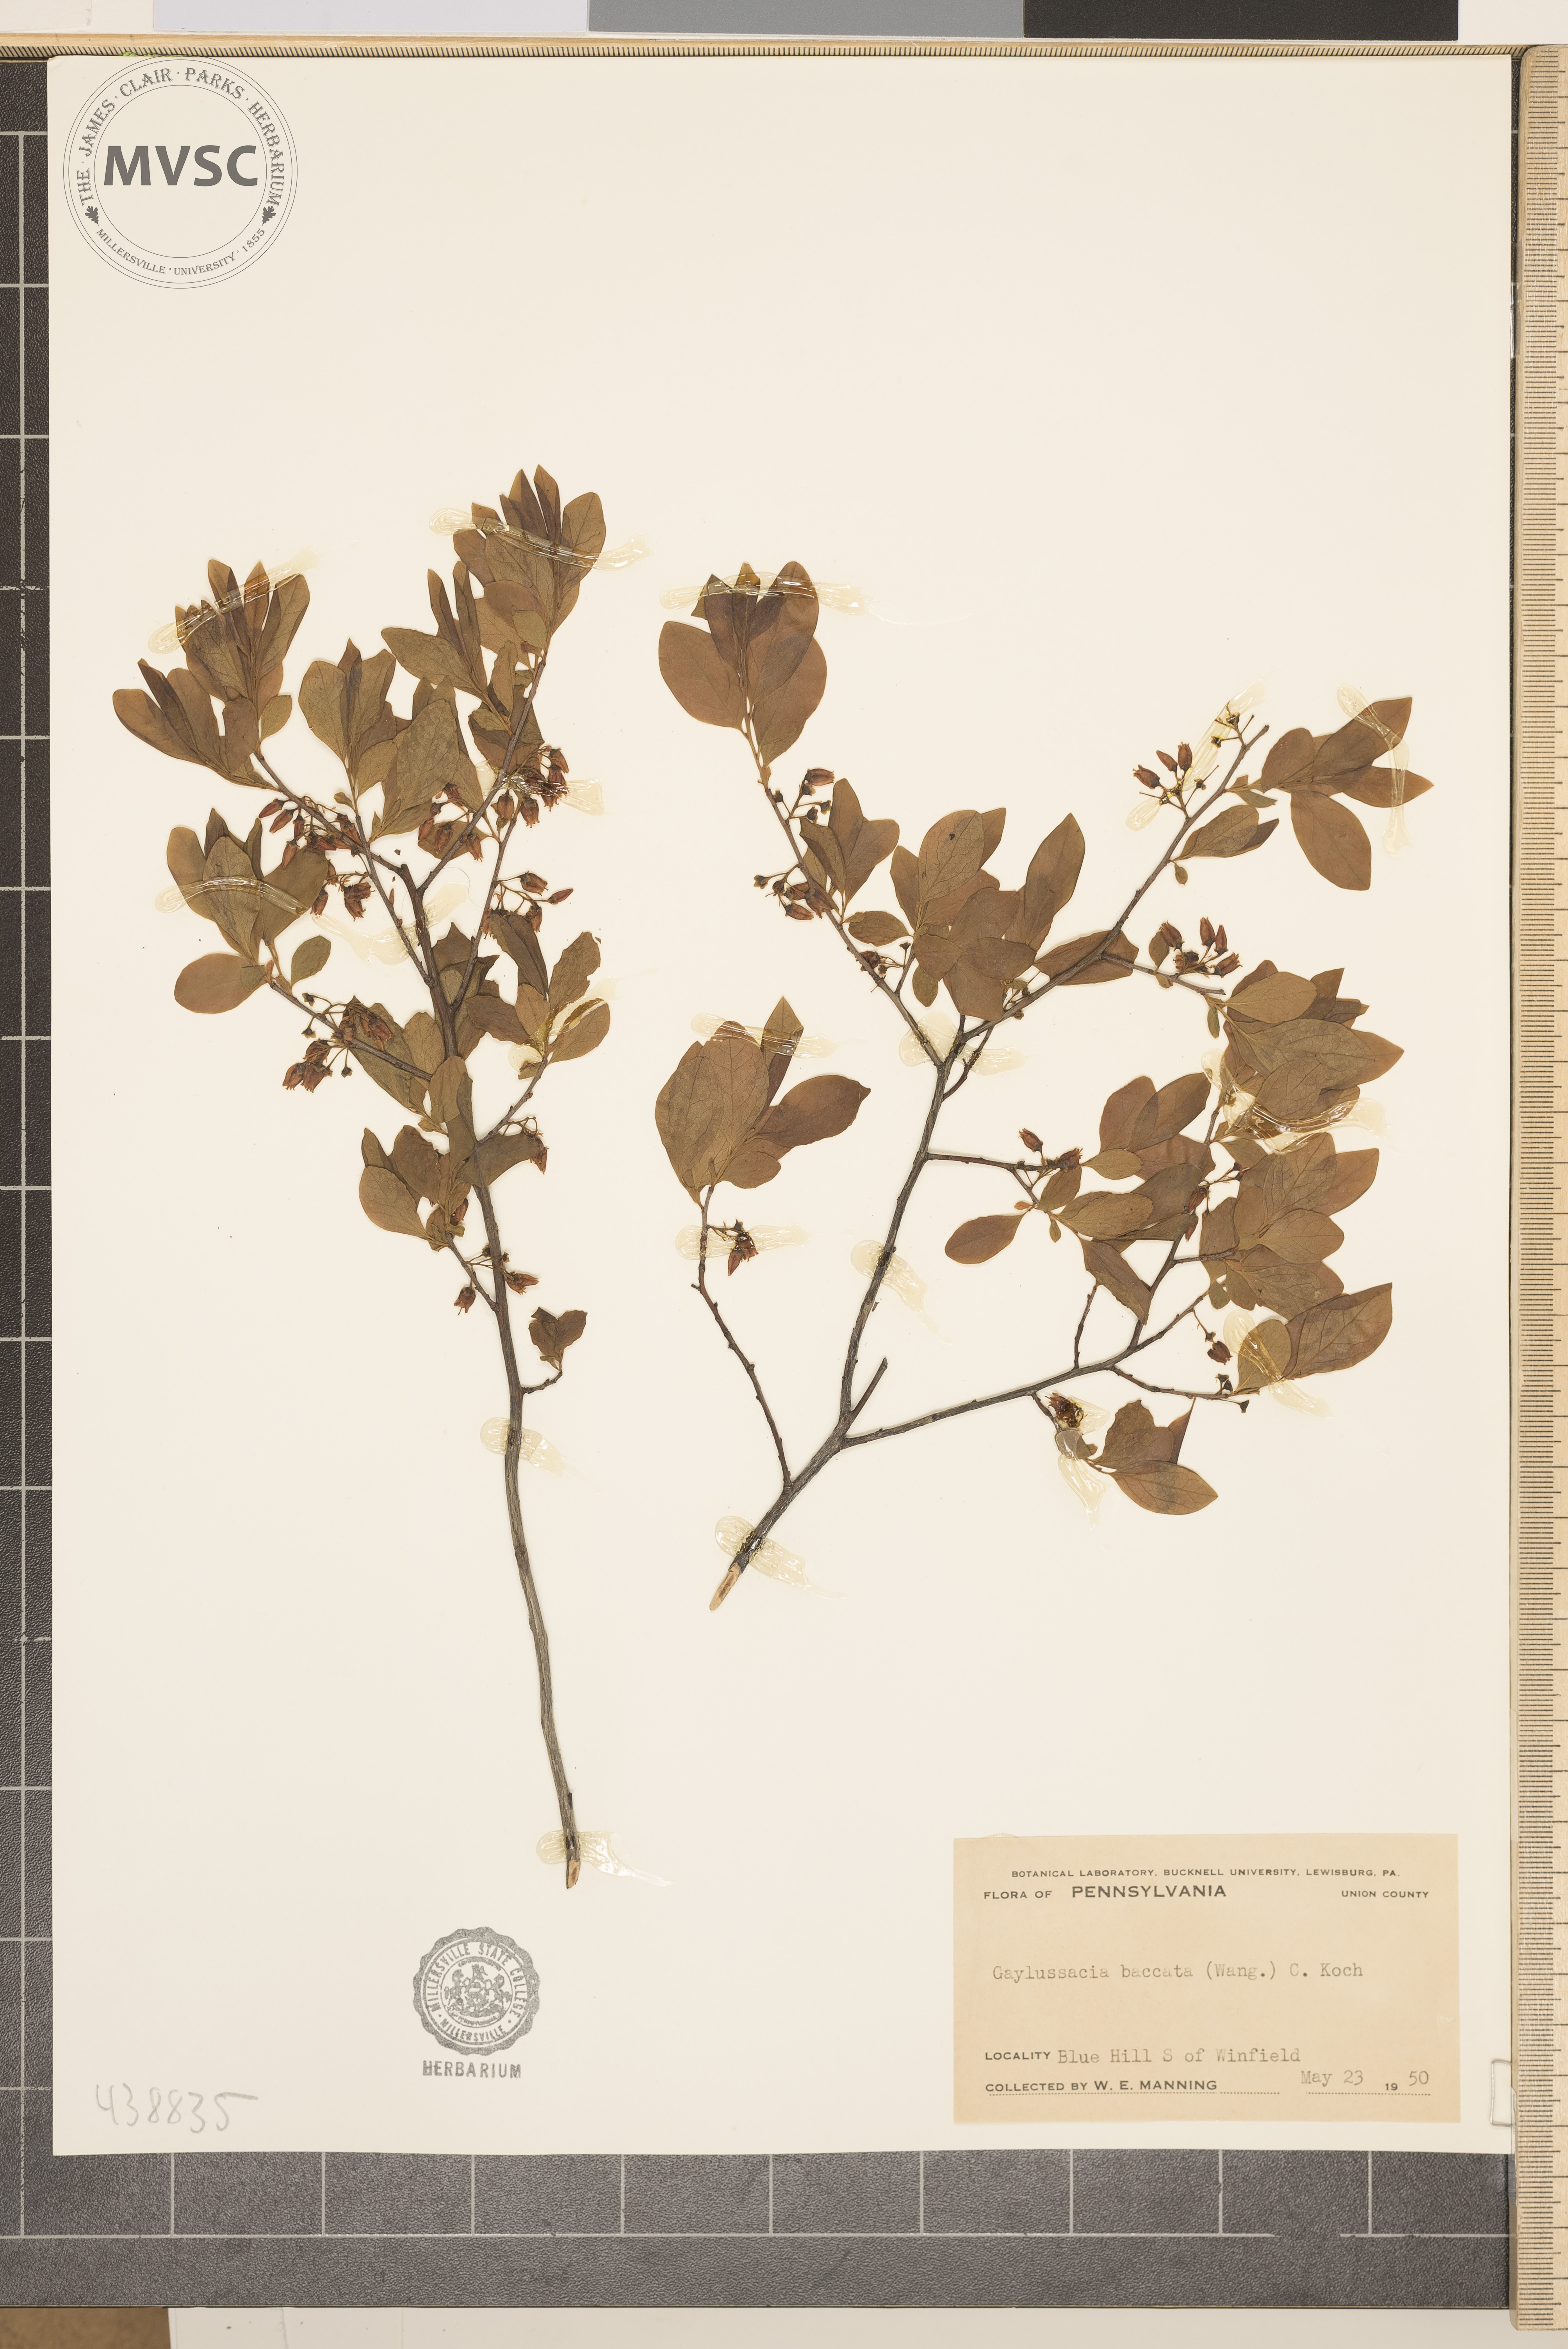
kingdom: Plantae
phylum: Tracheophyta
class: Magnoliopsida
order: Ericales
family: Ericaceae
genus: Gaylussacia
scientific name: Gaylussacia baccata
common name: Black huckleberry
